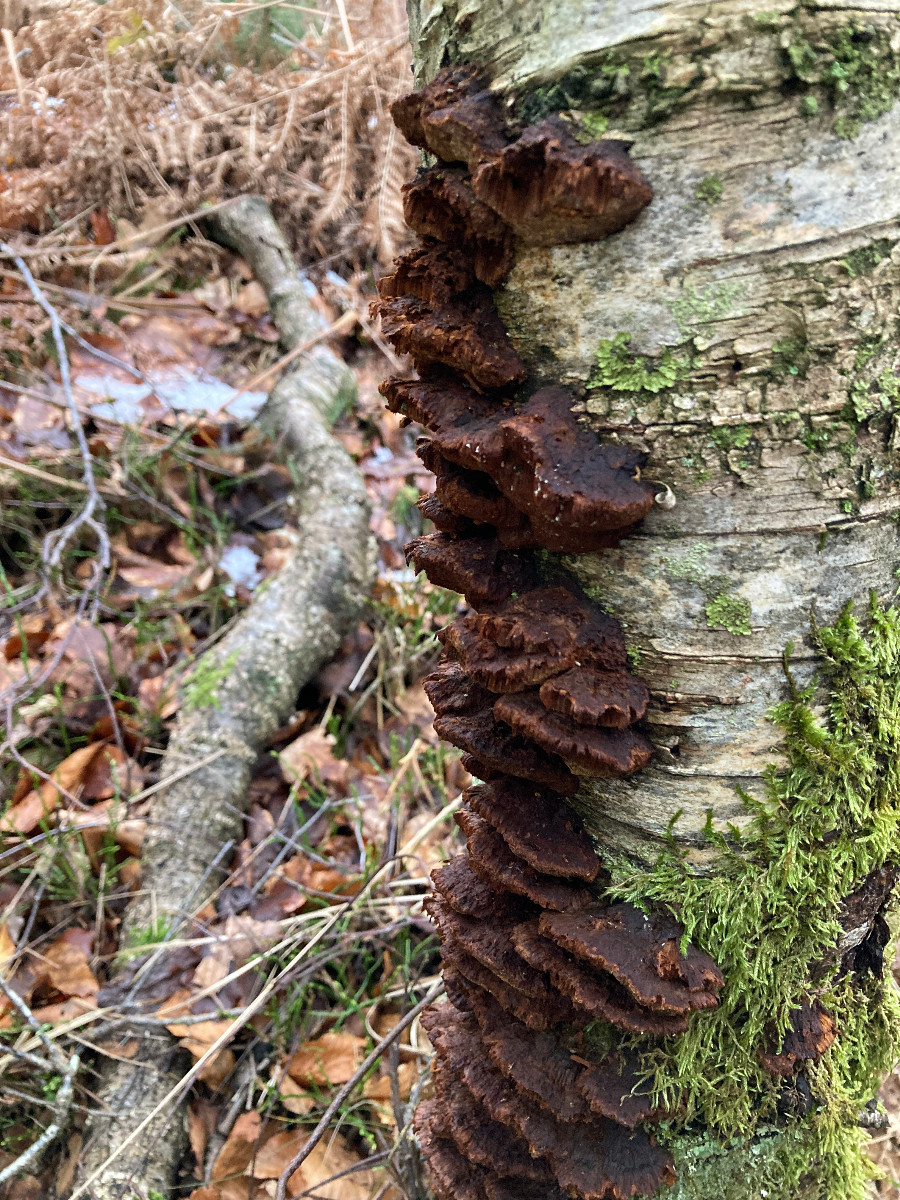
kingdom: Fungi
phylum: Basidiomycota
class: Agaricomycetes
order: Hymenochaetales
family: Hymenochaetaceae
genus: Xanthoporia
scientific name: Xanthoporia radiata
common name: elle-spejlporesvamp
